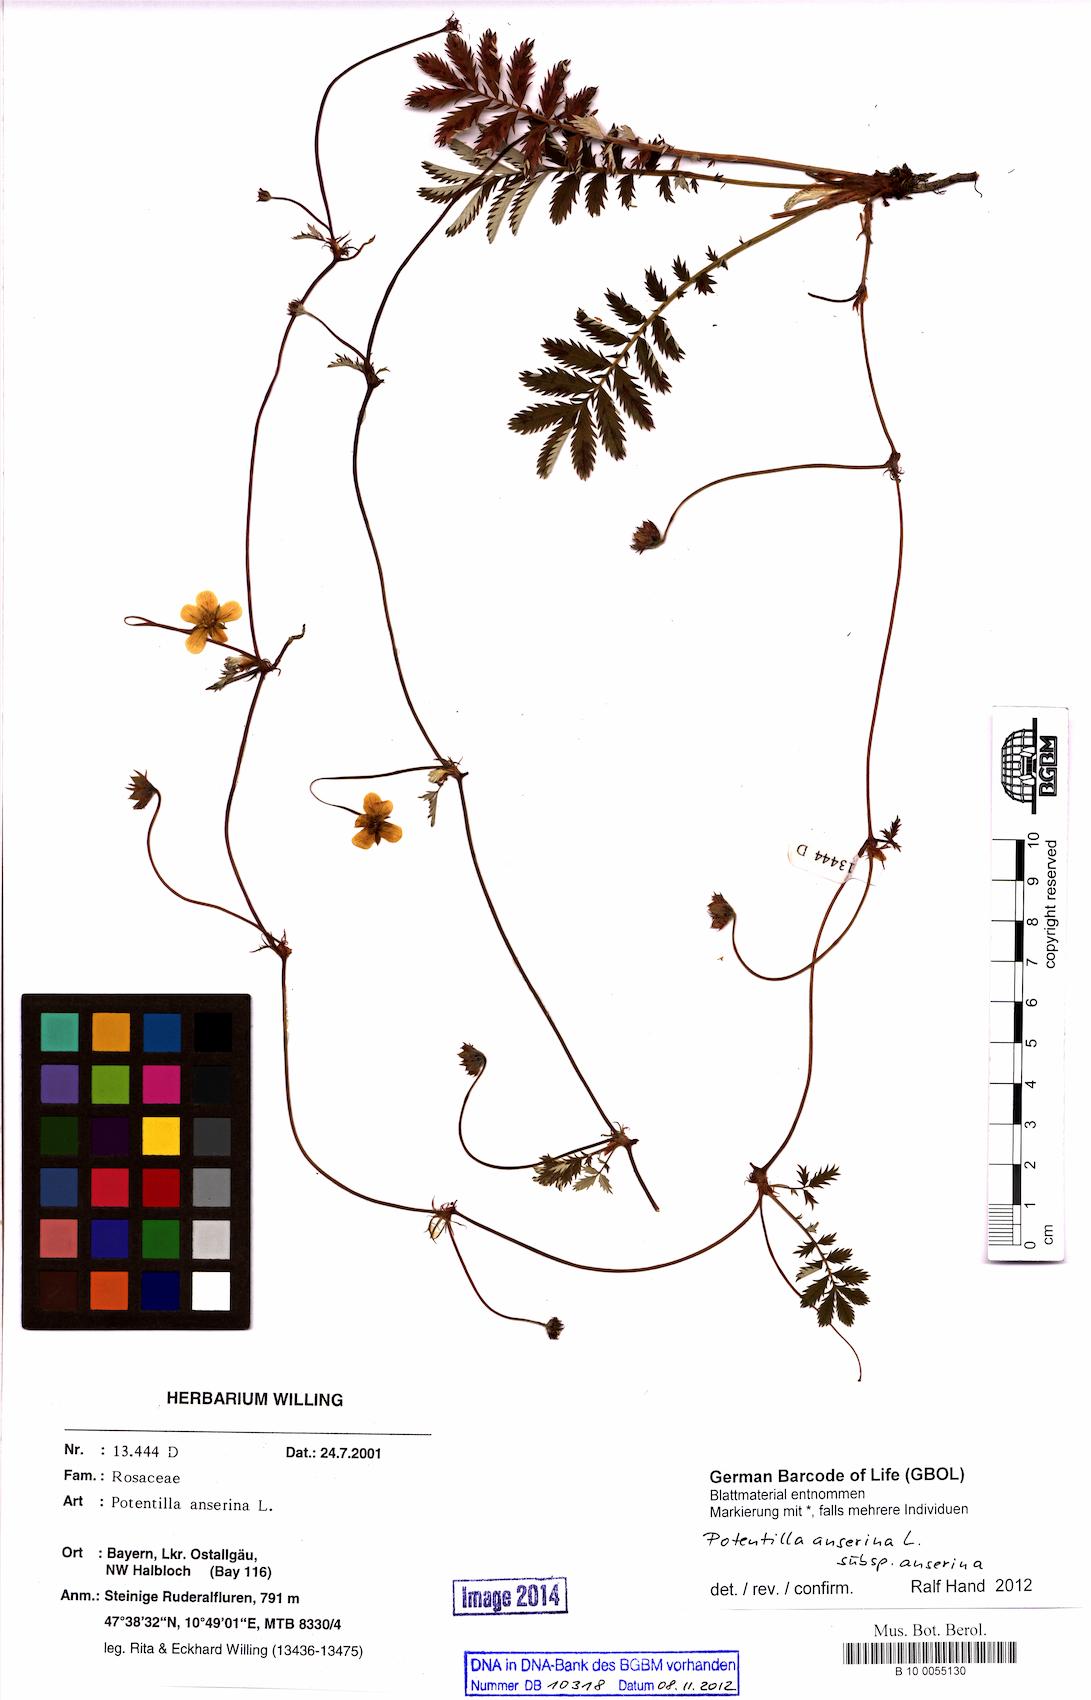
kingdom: Plantae
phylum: Tracheophyta
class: Magnoliopsida
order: Rosales
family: Rosaceae
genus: Argentina
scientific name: Argentina anserina
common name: Common silverweed
